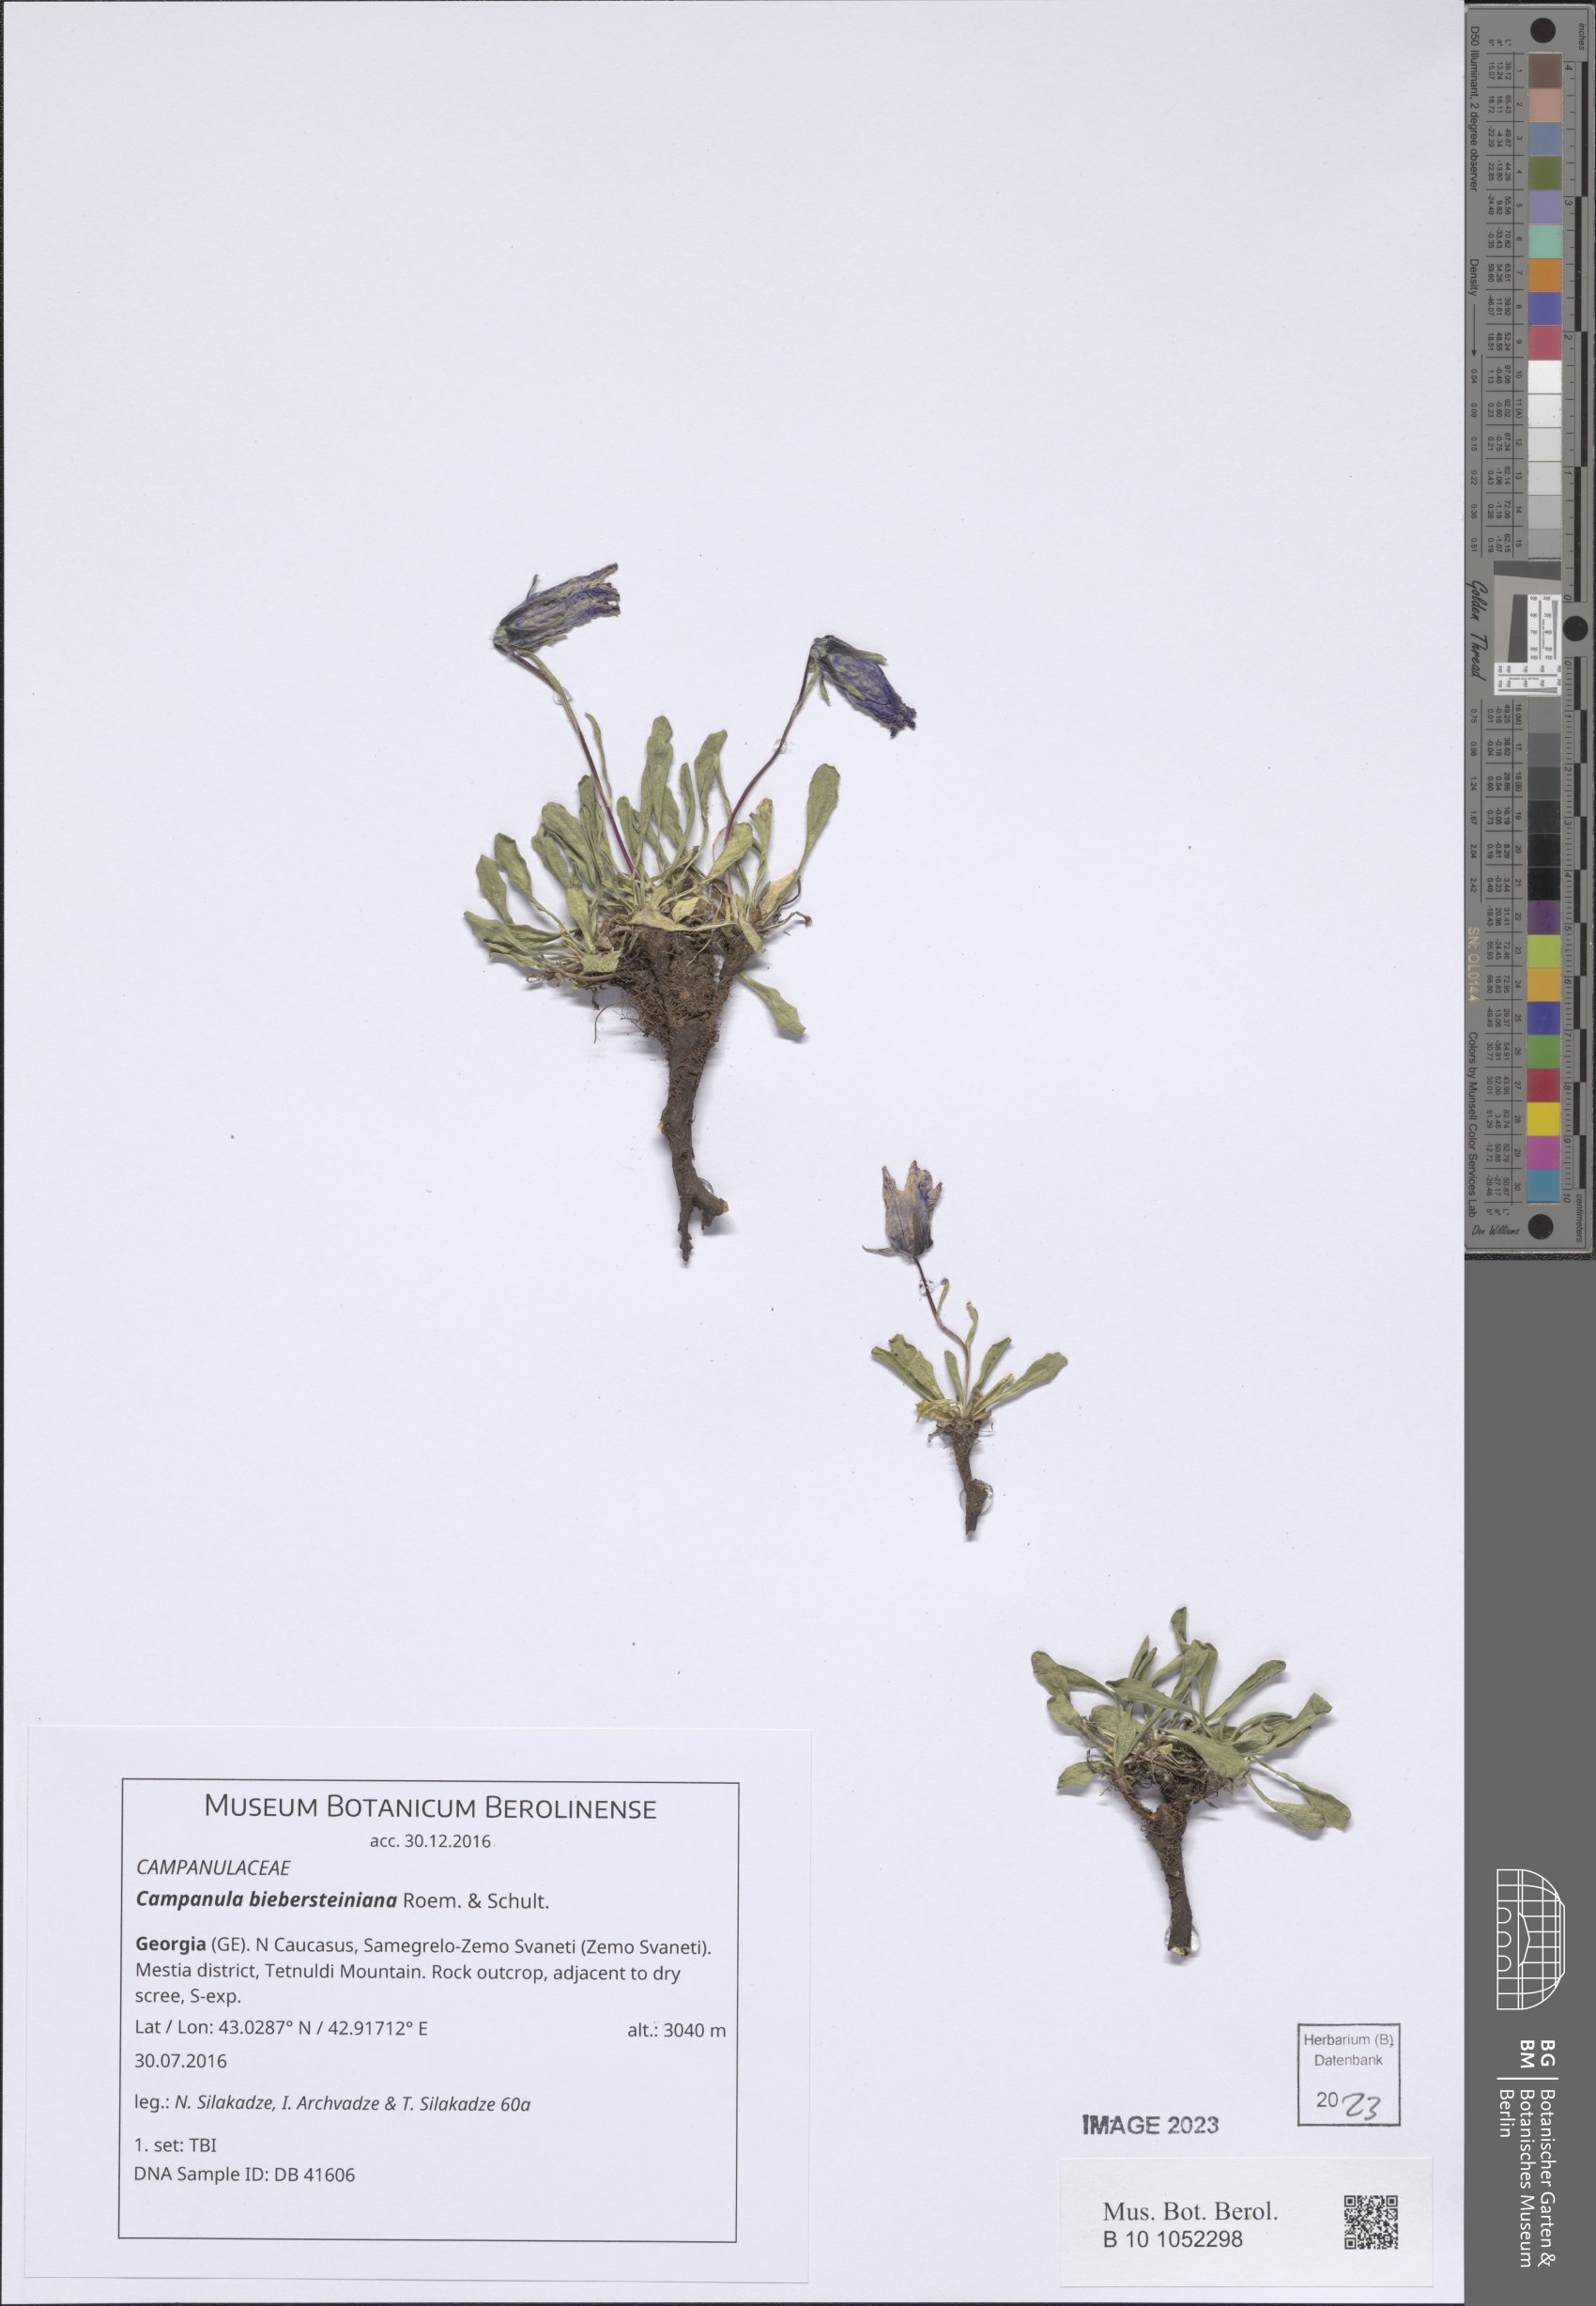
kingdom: Plantae
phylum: Tracheophyta
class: Magnoliopsida
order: Asterales
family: Campanulaceae
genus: Campanula
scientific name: Campanula tridentata
